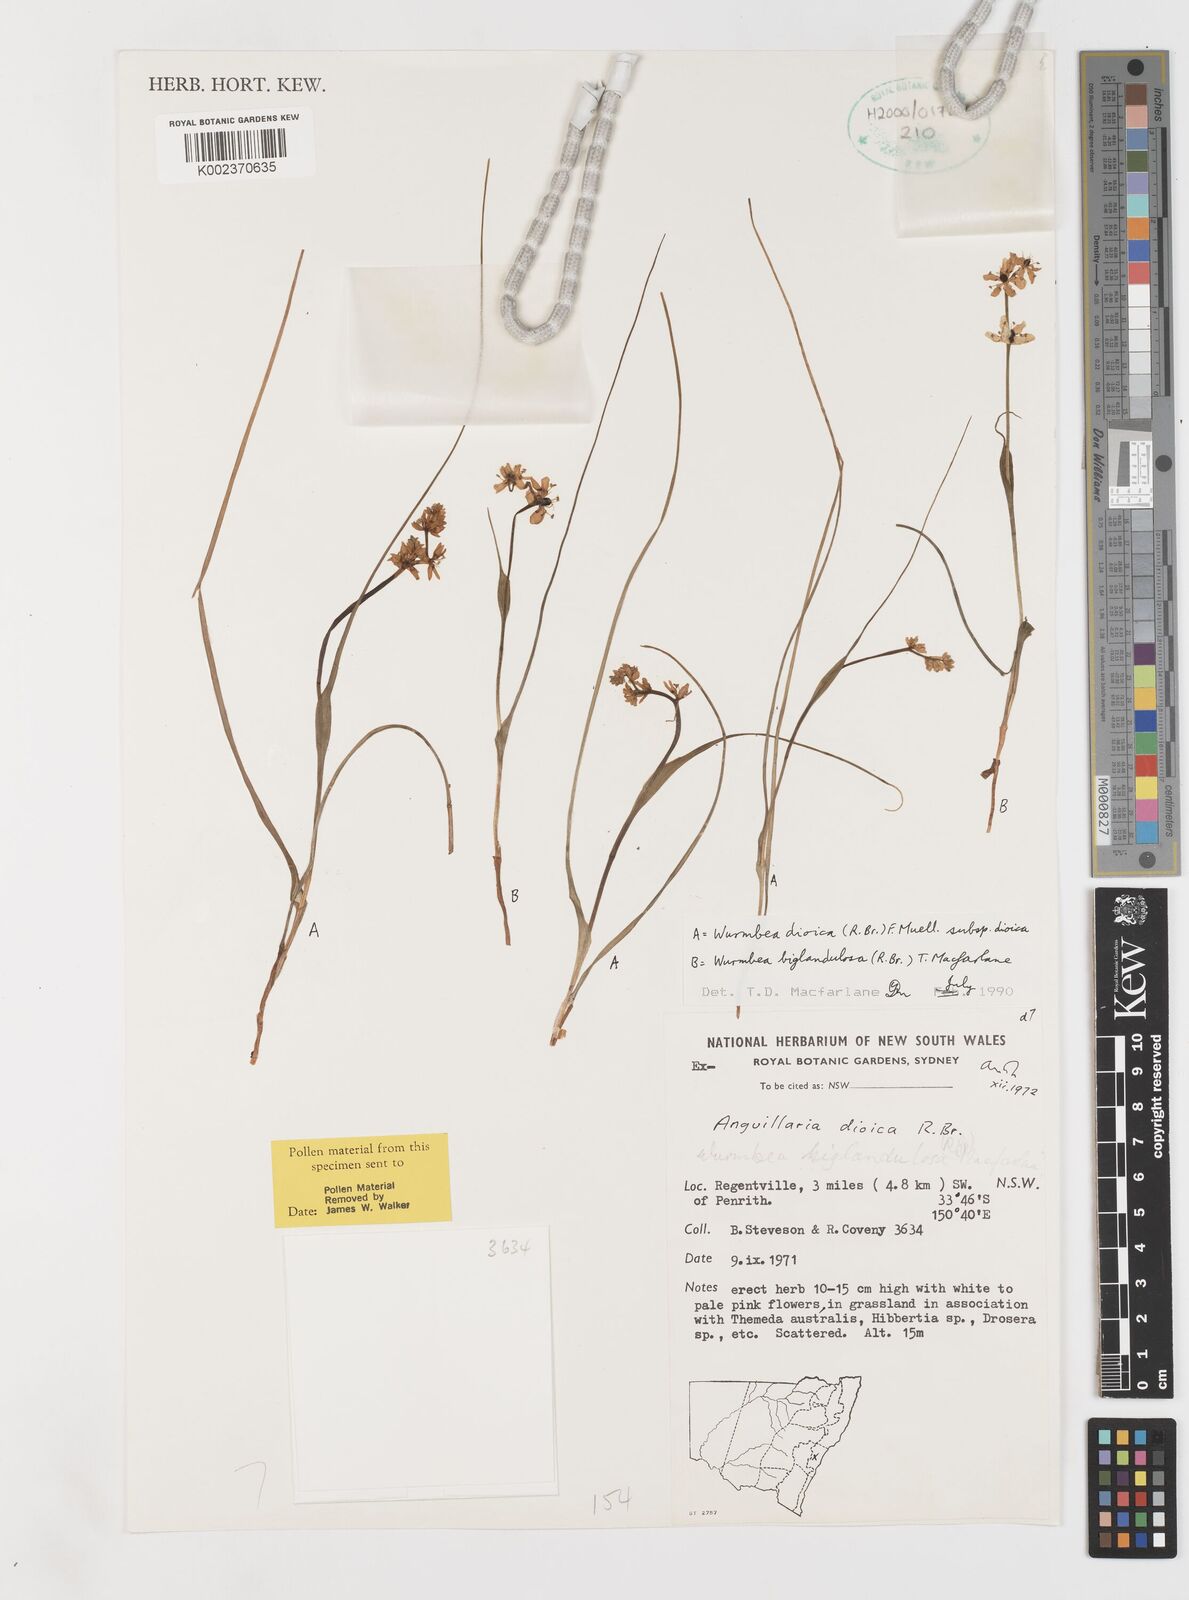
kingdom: Plantae
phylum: Tracheophyta
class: Liliopsida
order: Liliales
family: Colchicaceae
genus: Wurmbea
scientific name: Wurmbea biglandulosa
